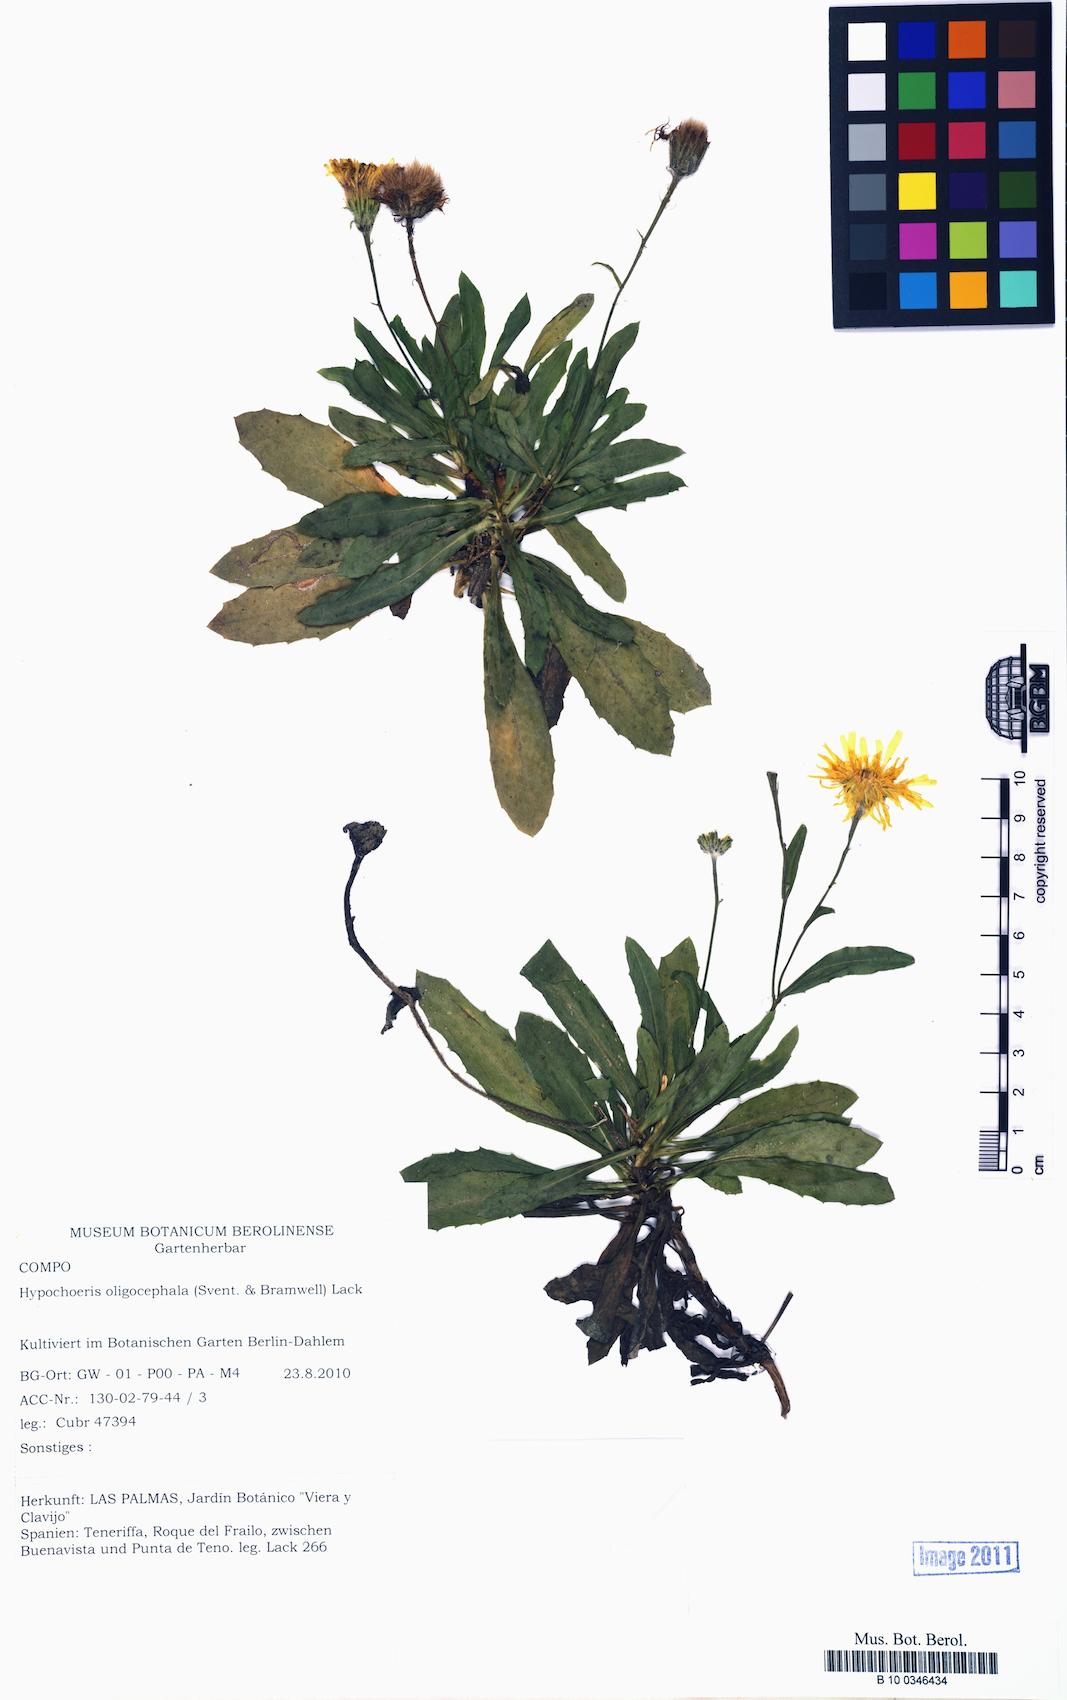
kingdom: Plantae
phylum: Tracheophyta
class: Magnoliopsida
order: Asterales
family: Asteraceae
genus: Hypochaeris
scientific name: Hypochaeris oligocephala
